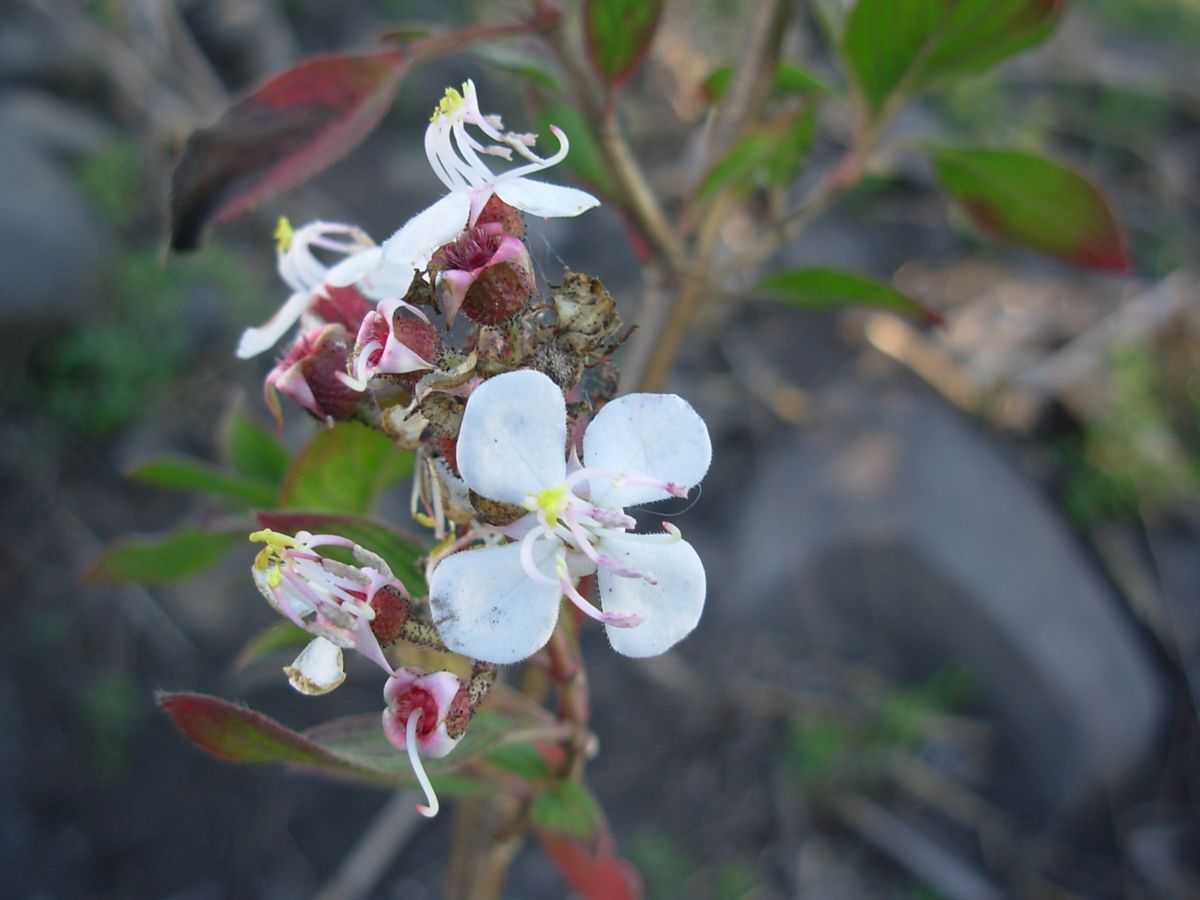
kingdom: Plantae
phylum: Tracheophyta
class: Magnoliopsida
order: Myrtales
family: Melastomataceae
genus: Heterocentron
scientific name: Heterocentron subtriplinervium
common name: Pearl flower
